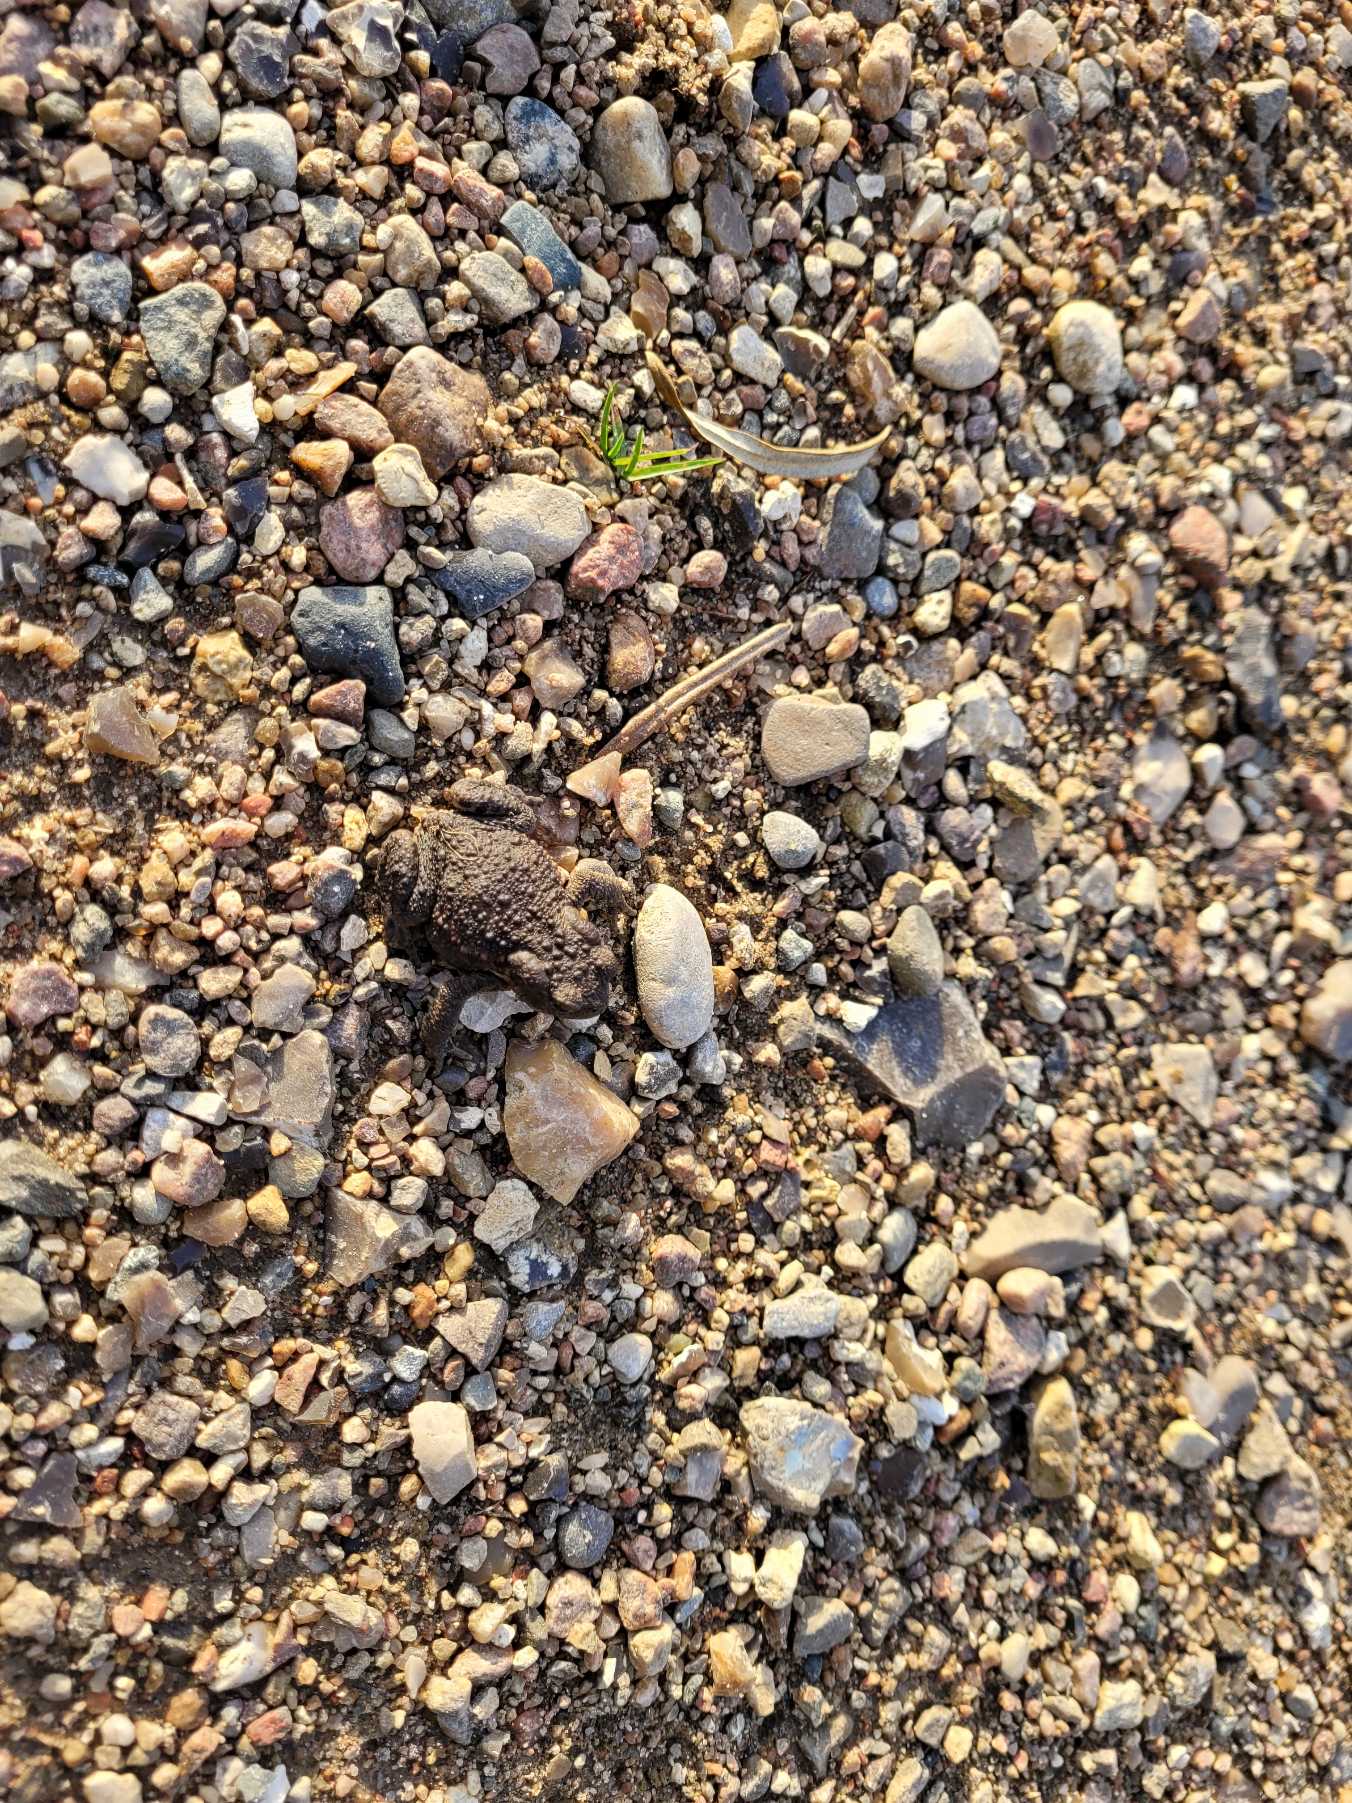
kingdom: Animalia
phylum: Chordata
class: Amphibia
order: Anura
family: Bufonidae
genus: Bufo
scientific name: Bufo bufo
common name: Skrubtudse
